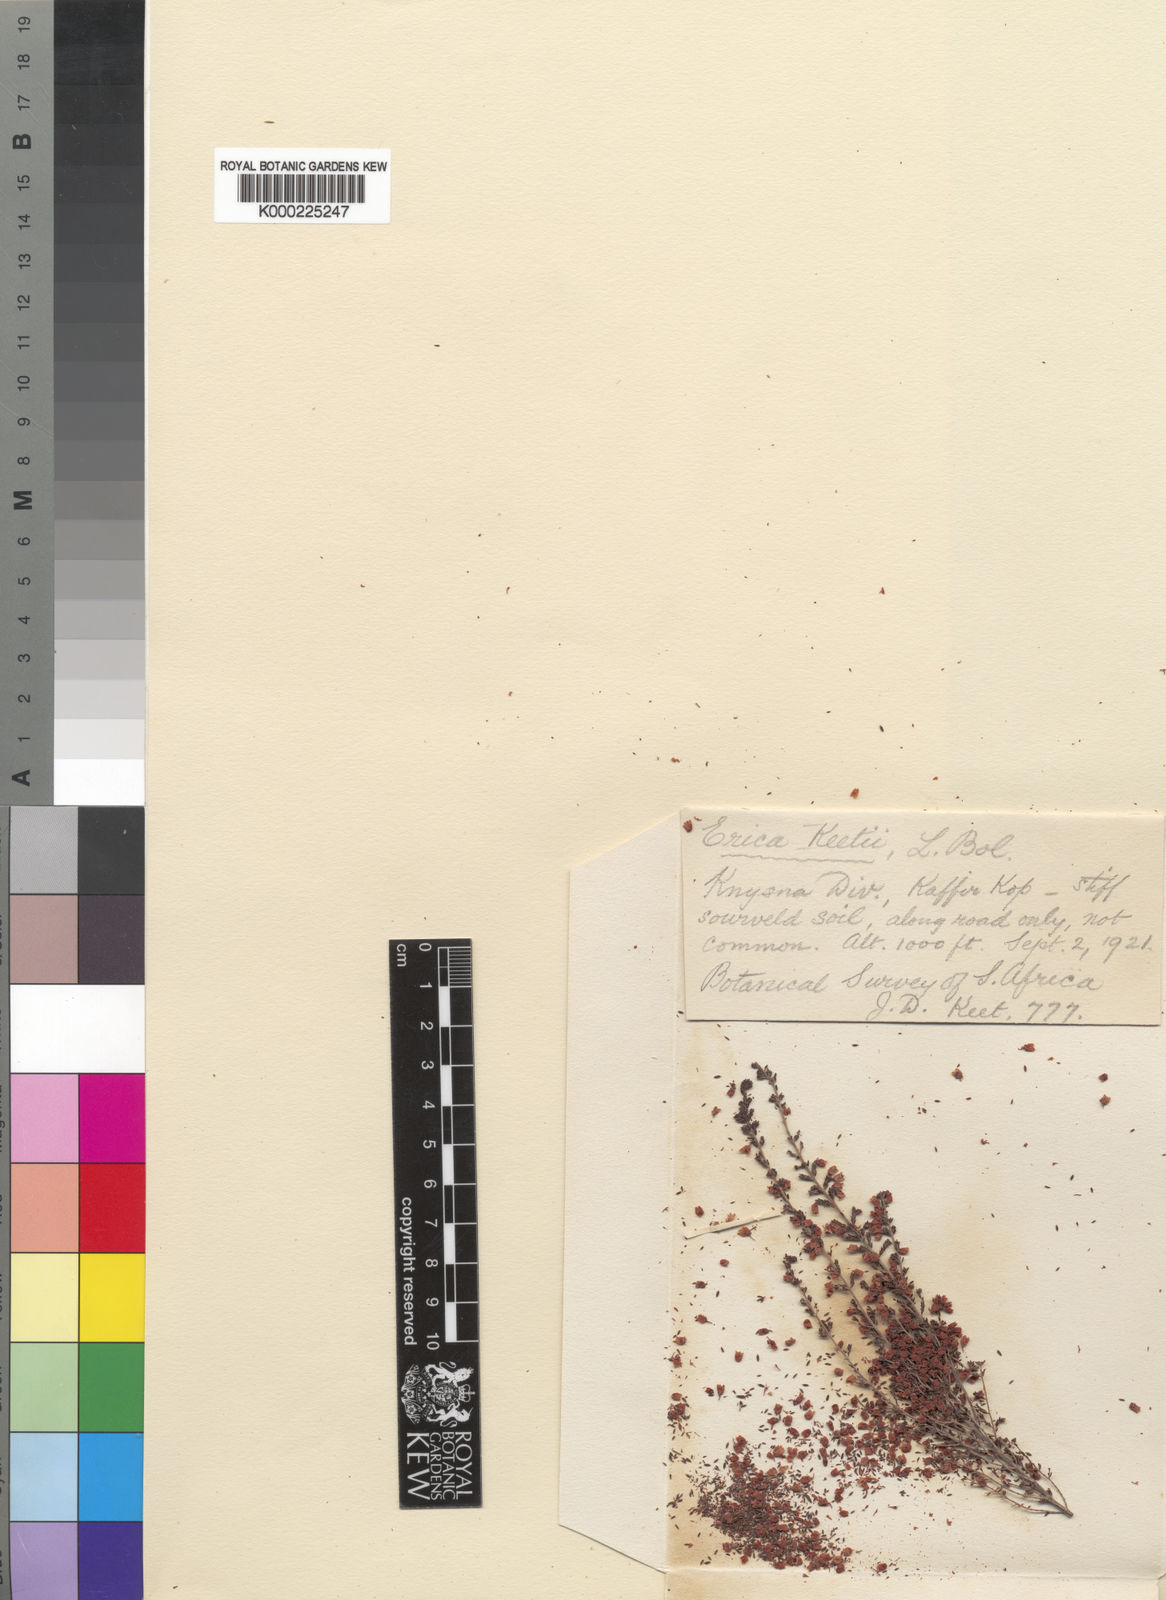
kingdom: Plantae
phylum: Tracheophyta
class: Magnoliopsida
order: Ericales
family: Ericaceae
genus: Erica
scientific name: Erica keetii
